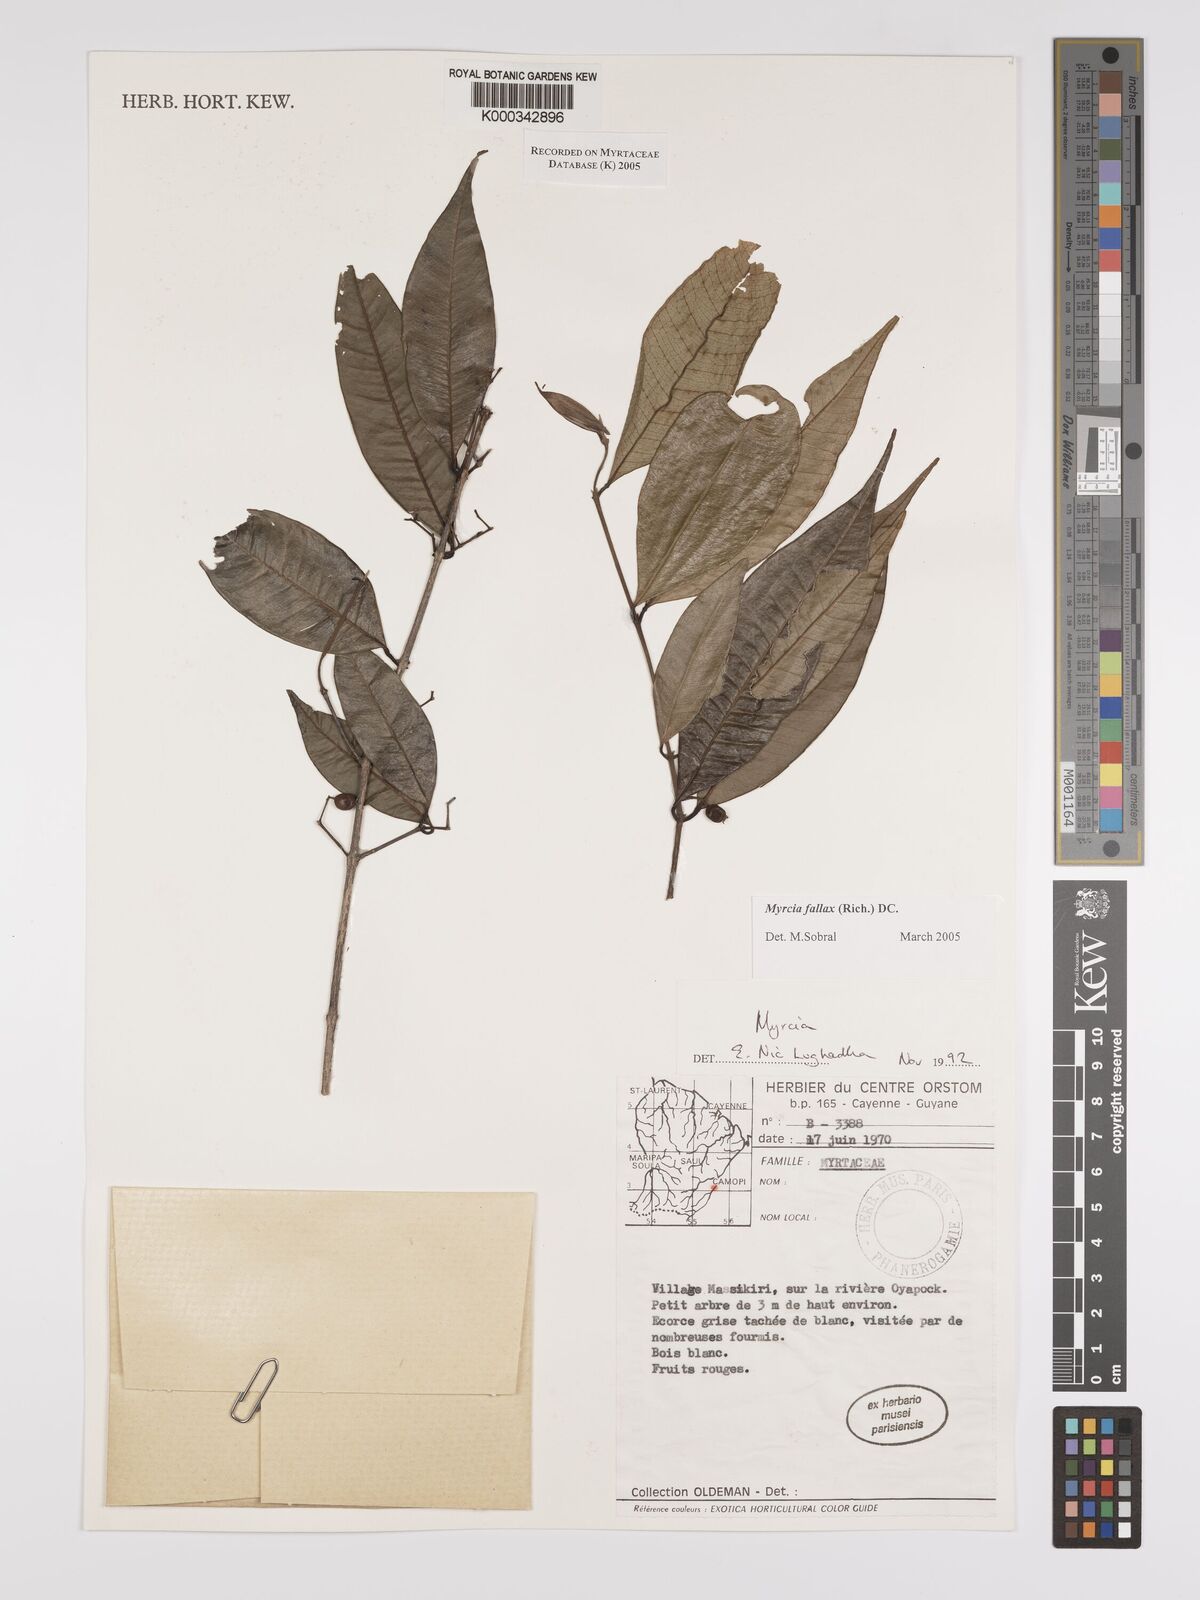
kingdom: Plantae
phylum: Tracheophyta
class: Magnoliopsida
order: Myrtales
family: Myrtaceae
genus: Myrcia
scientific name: Myrcia splendens
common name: Surinam cherry
